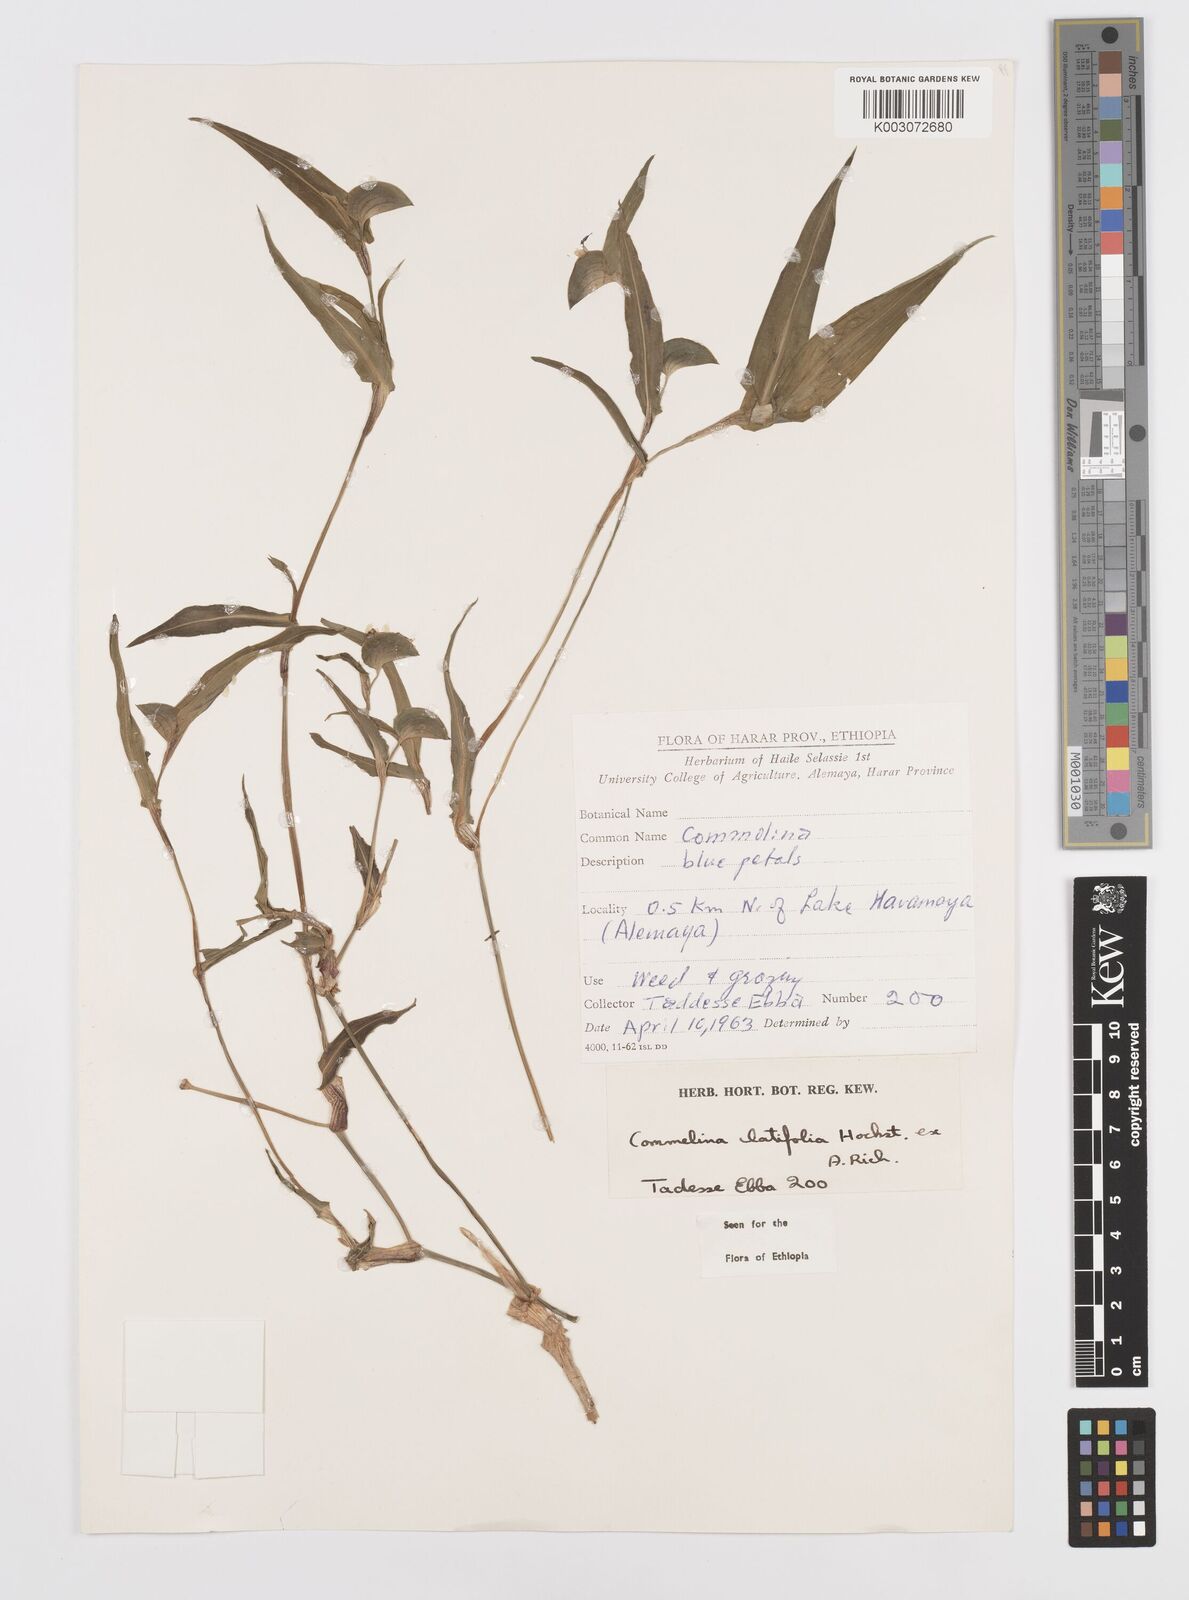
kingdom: Plantae
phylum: Tracheophyta
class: Liliopsida
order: Commelinales
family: Commelinaceae
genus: Commelina
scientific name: Commelina imberbis
